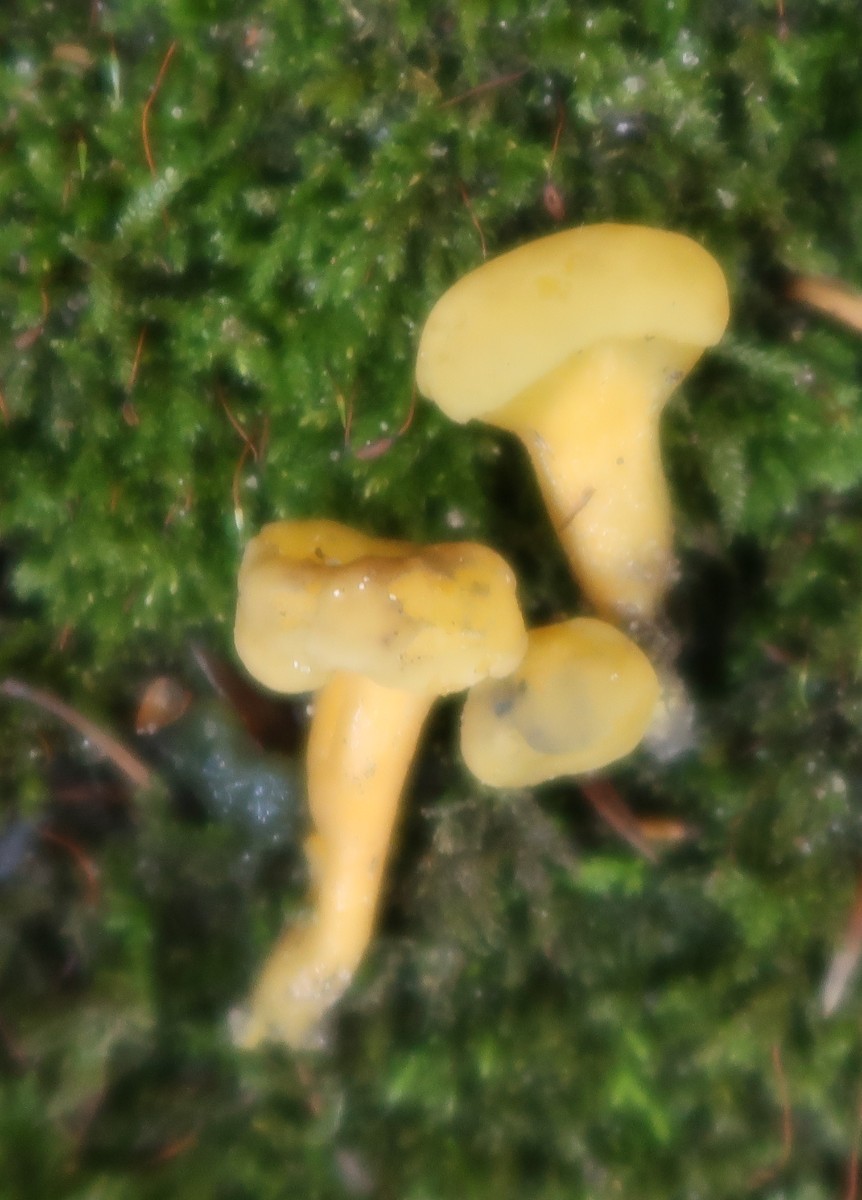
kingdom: Fungi
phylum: Ascomycota
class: Leotiomycetes
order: Leotiales
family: Leotiaceae
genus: Leotia
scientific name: Leotia lubrica
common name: ravsvamp
